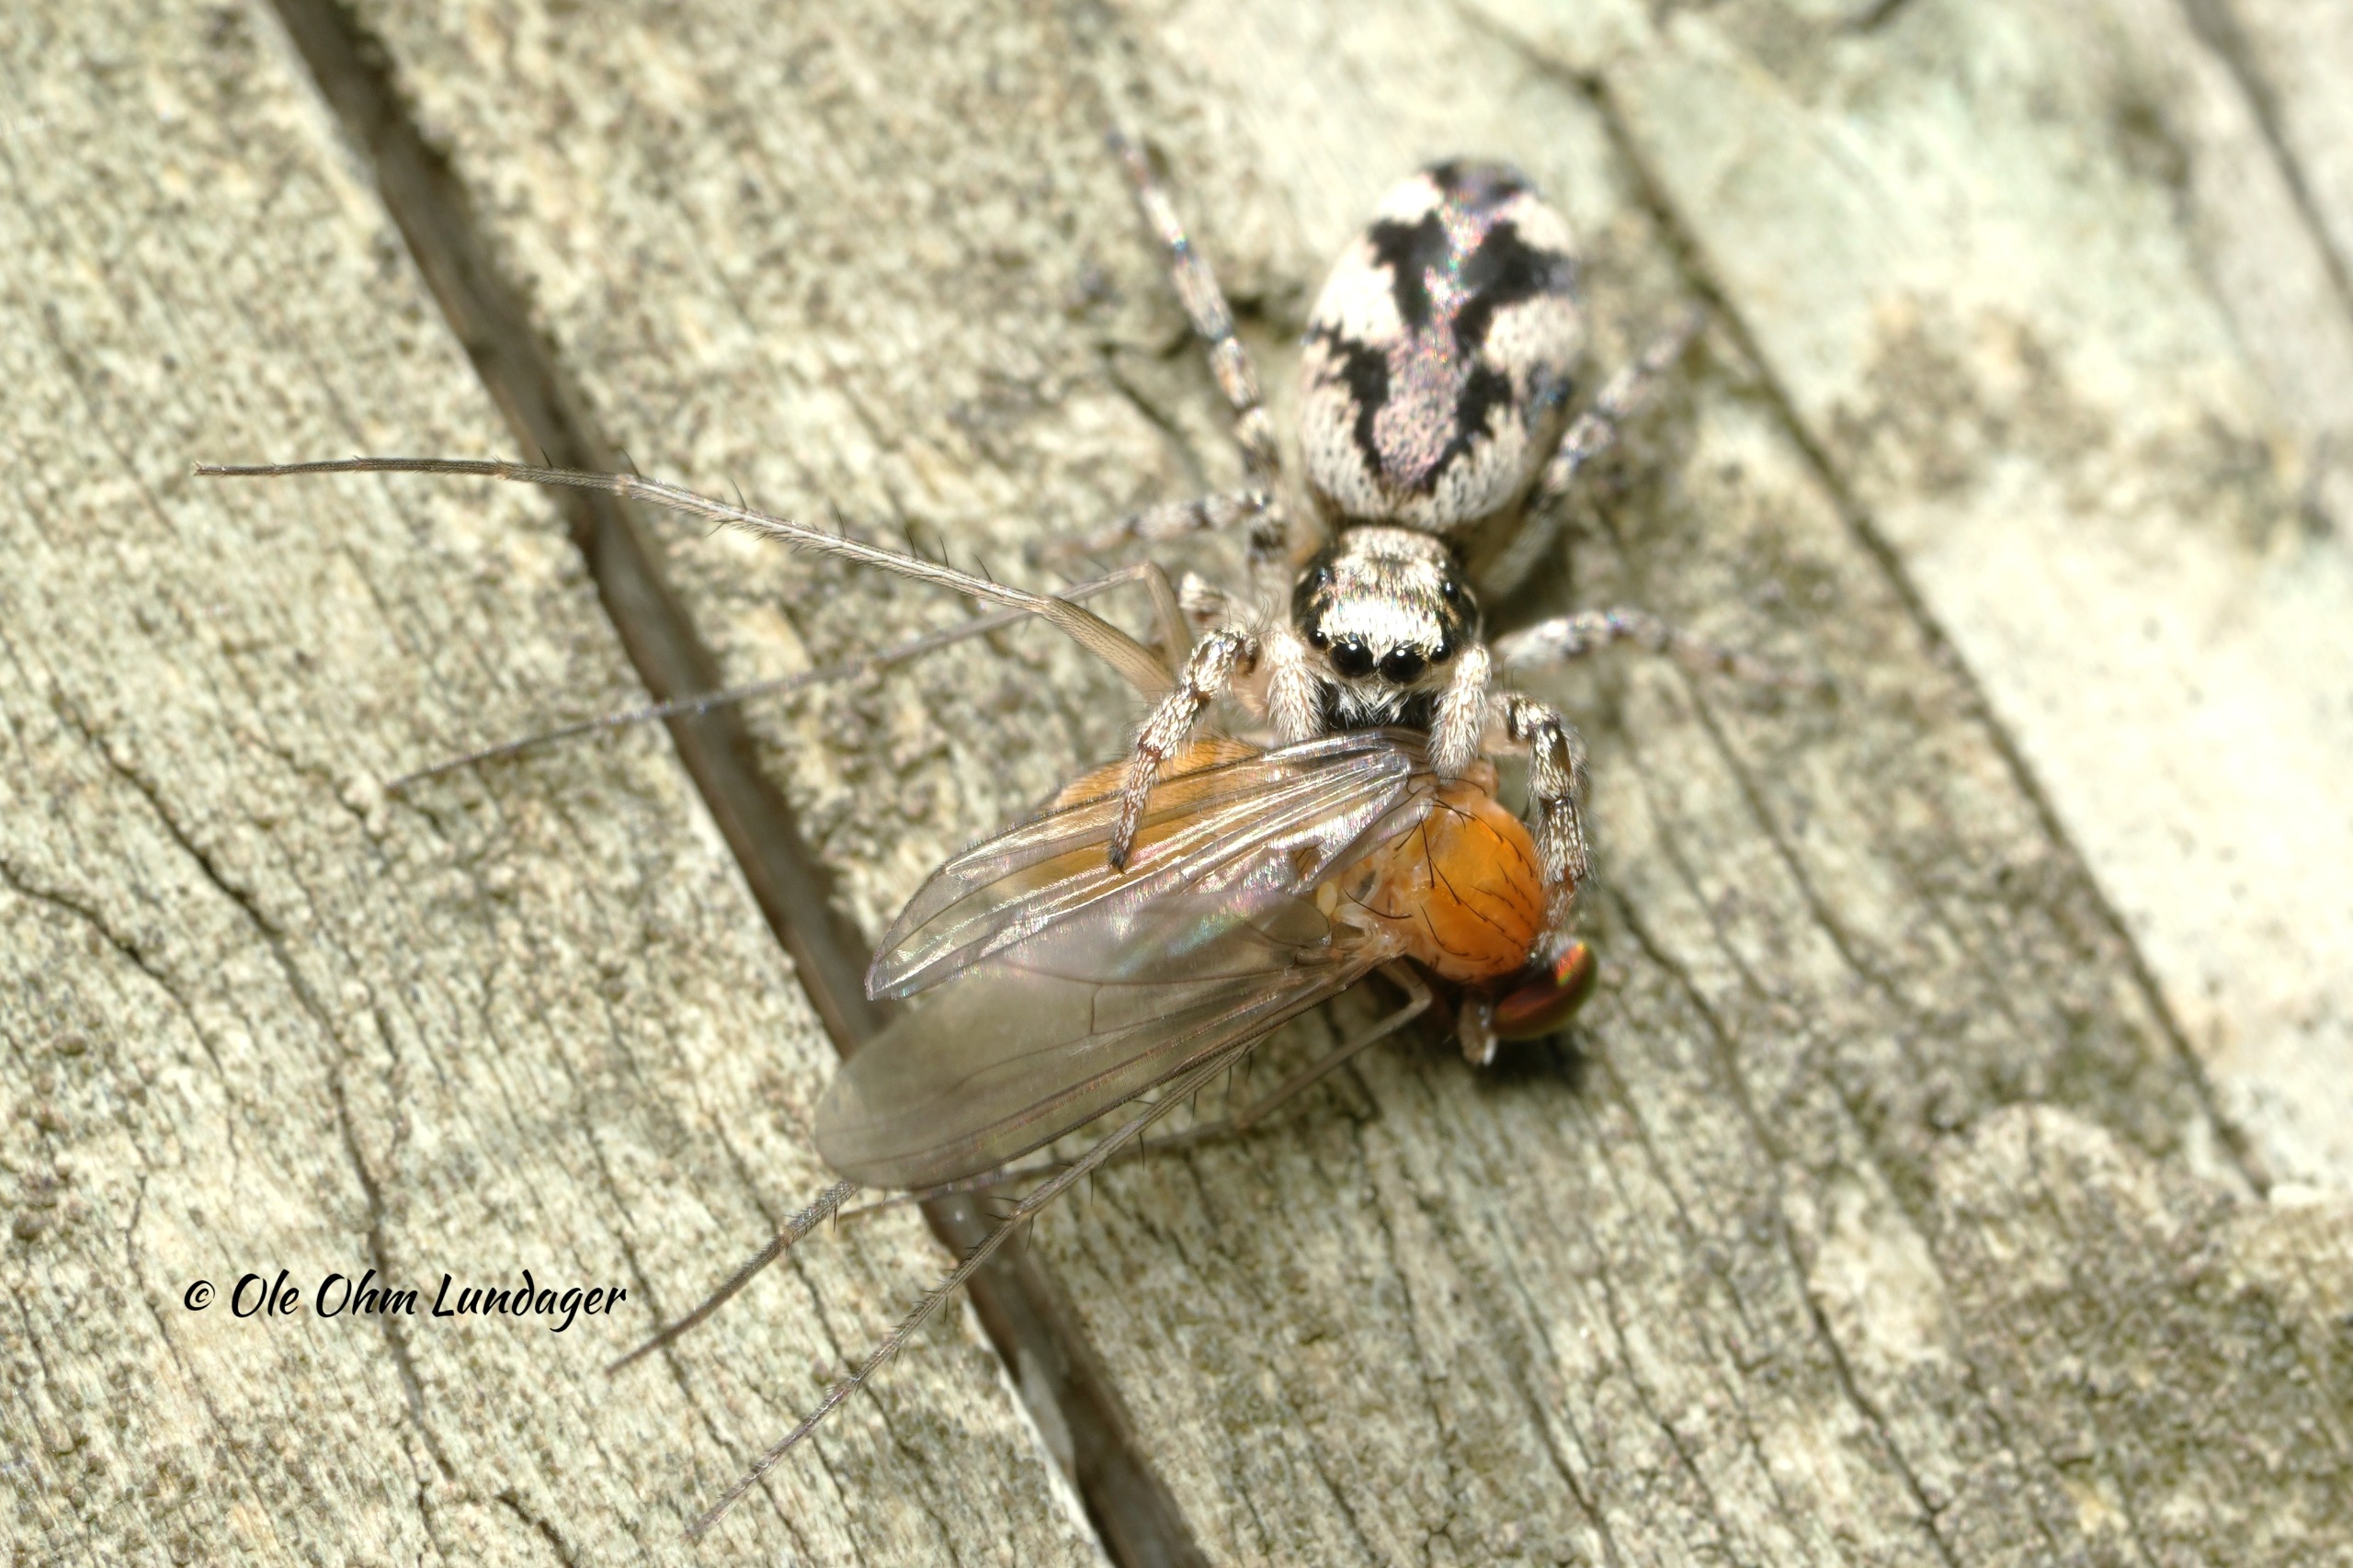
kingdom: Animalia
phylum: Arthropoda
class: Arachnida
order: Araneae
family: Salticidae
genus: Salticus
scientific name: Salticus
